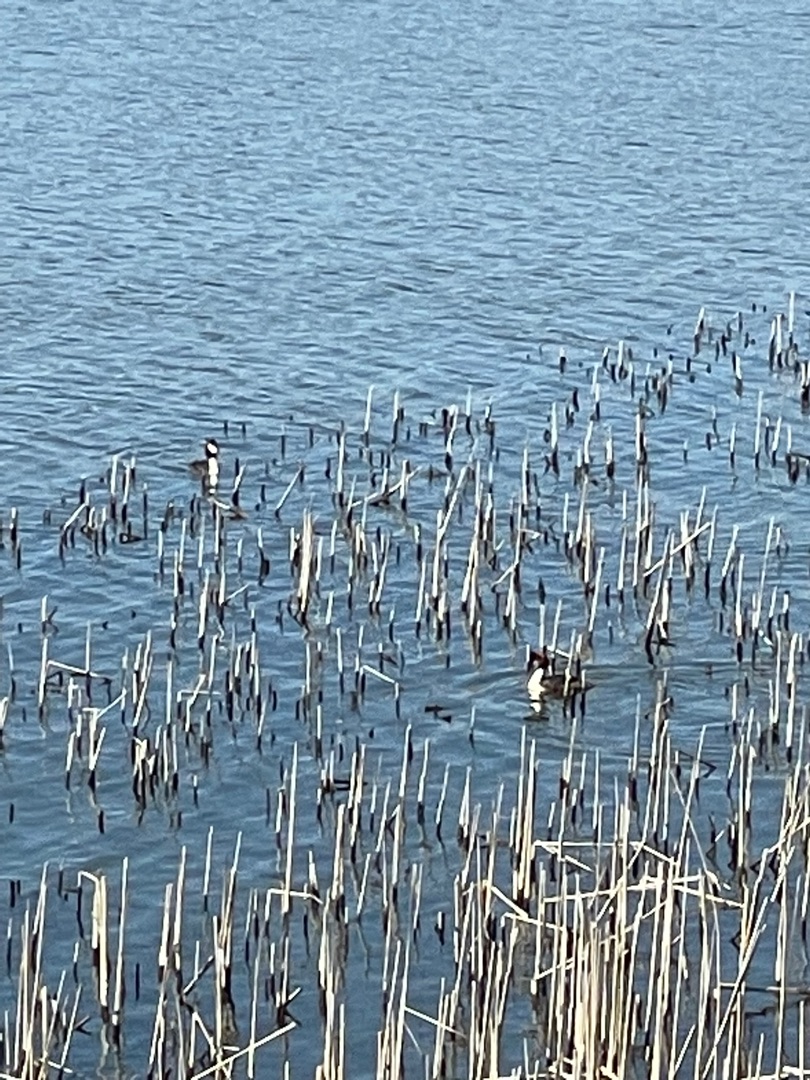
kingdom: Animalia
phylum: Chordata
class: Aves
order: Podicipediformes
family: Podicipedidae
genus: Podiceps
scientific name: Podiceps cristatus
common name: Toppet lappedykker
